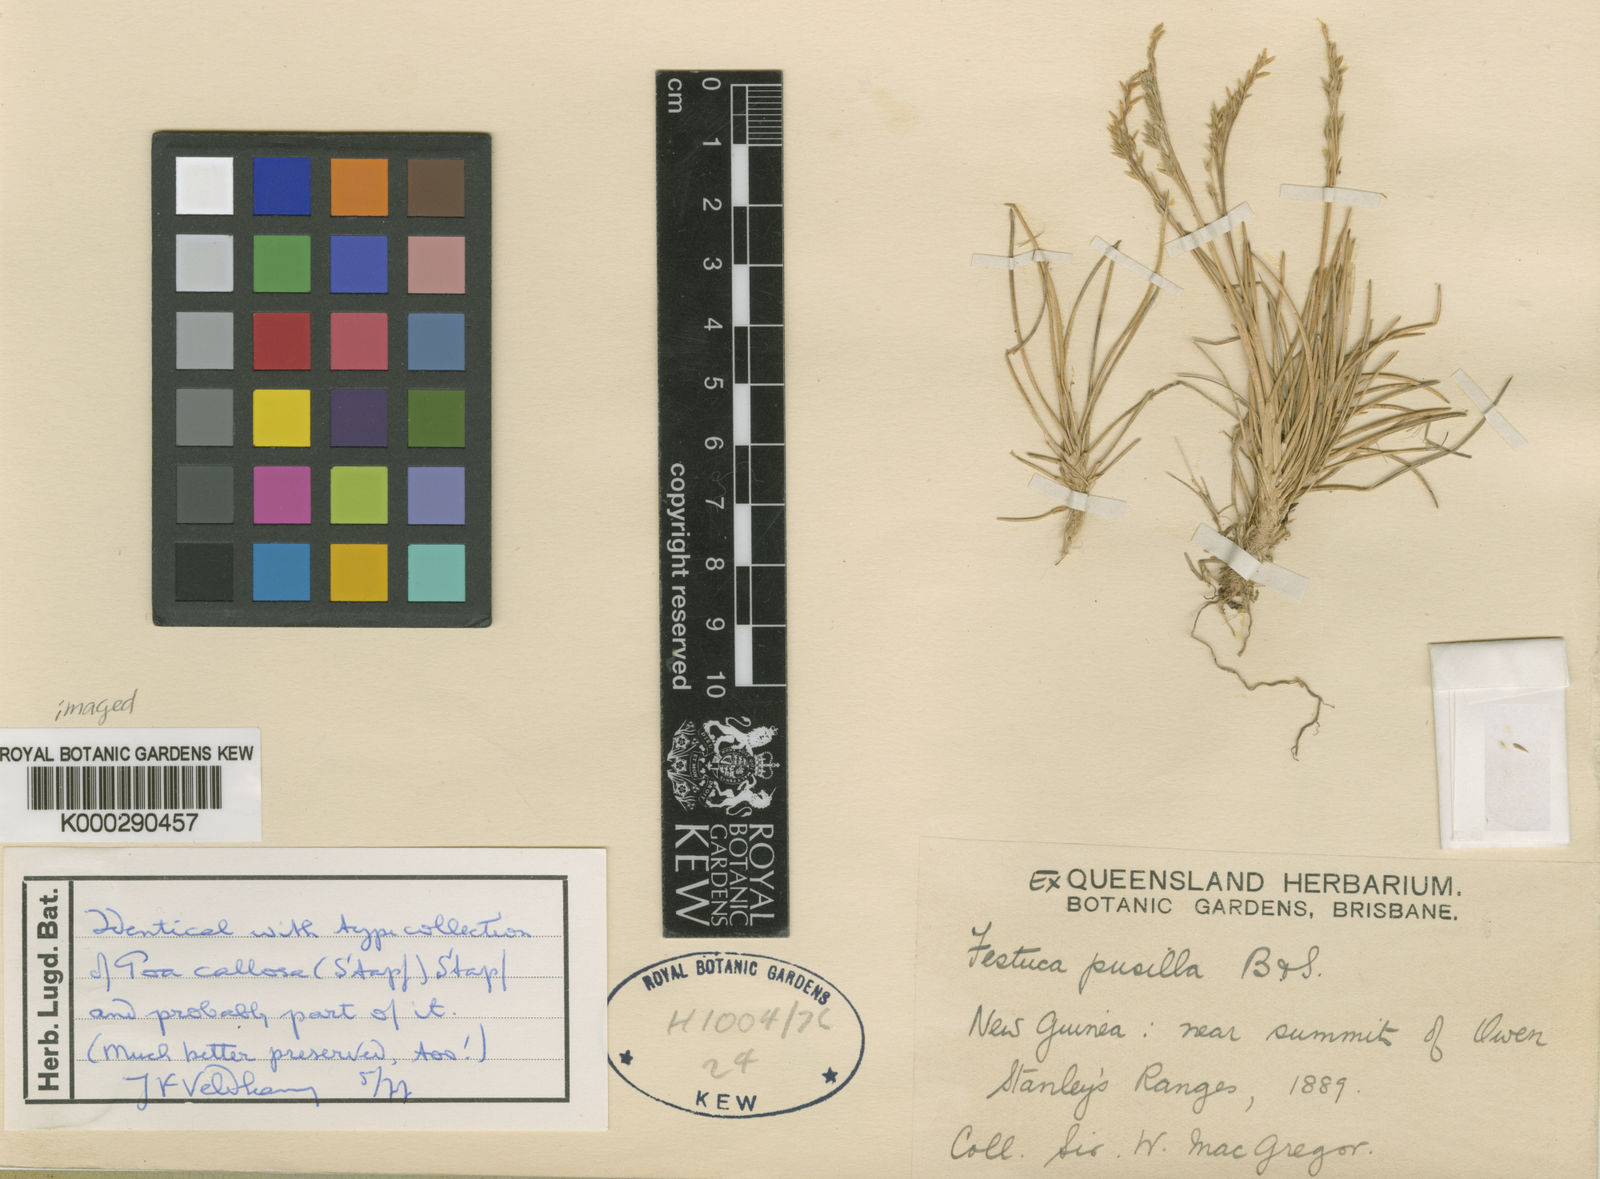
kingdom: Plantae
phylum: Tracheophyta
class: Liliopsida
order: Poales
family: Poaceae
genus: Poa
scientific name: Poa callosa
